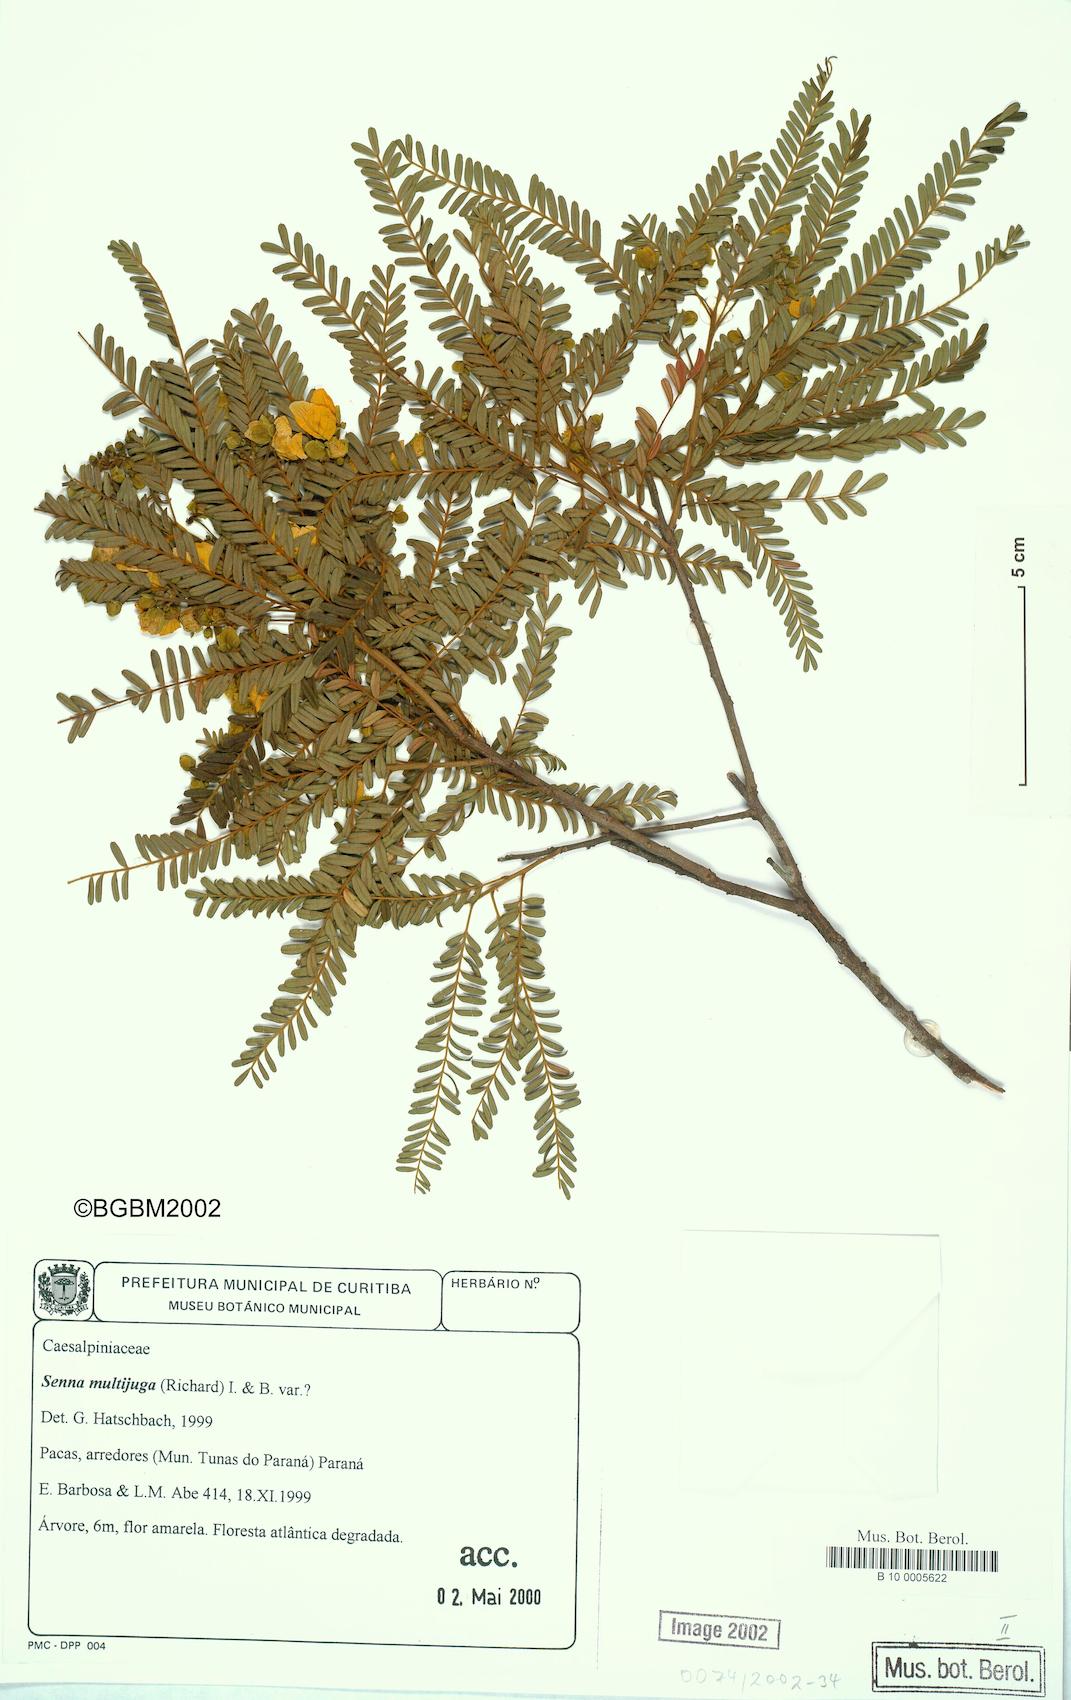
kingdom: Plantae
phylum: Tracheophyta
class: Magnoliopsida
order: Fabales
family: Fabaceae
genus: Senna
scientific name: Senna multijuga
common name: False sicklepod
